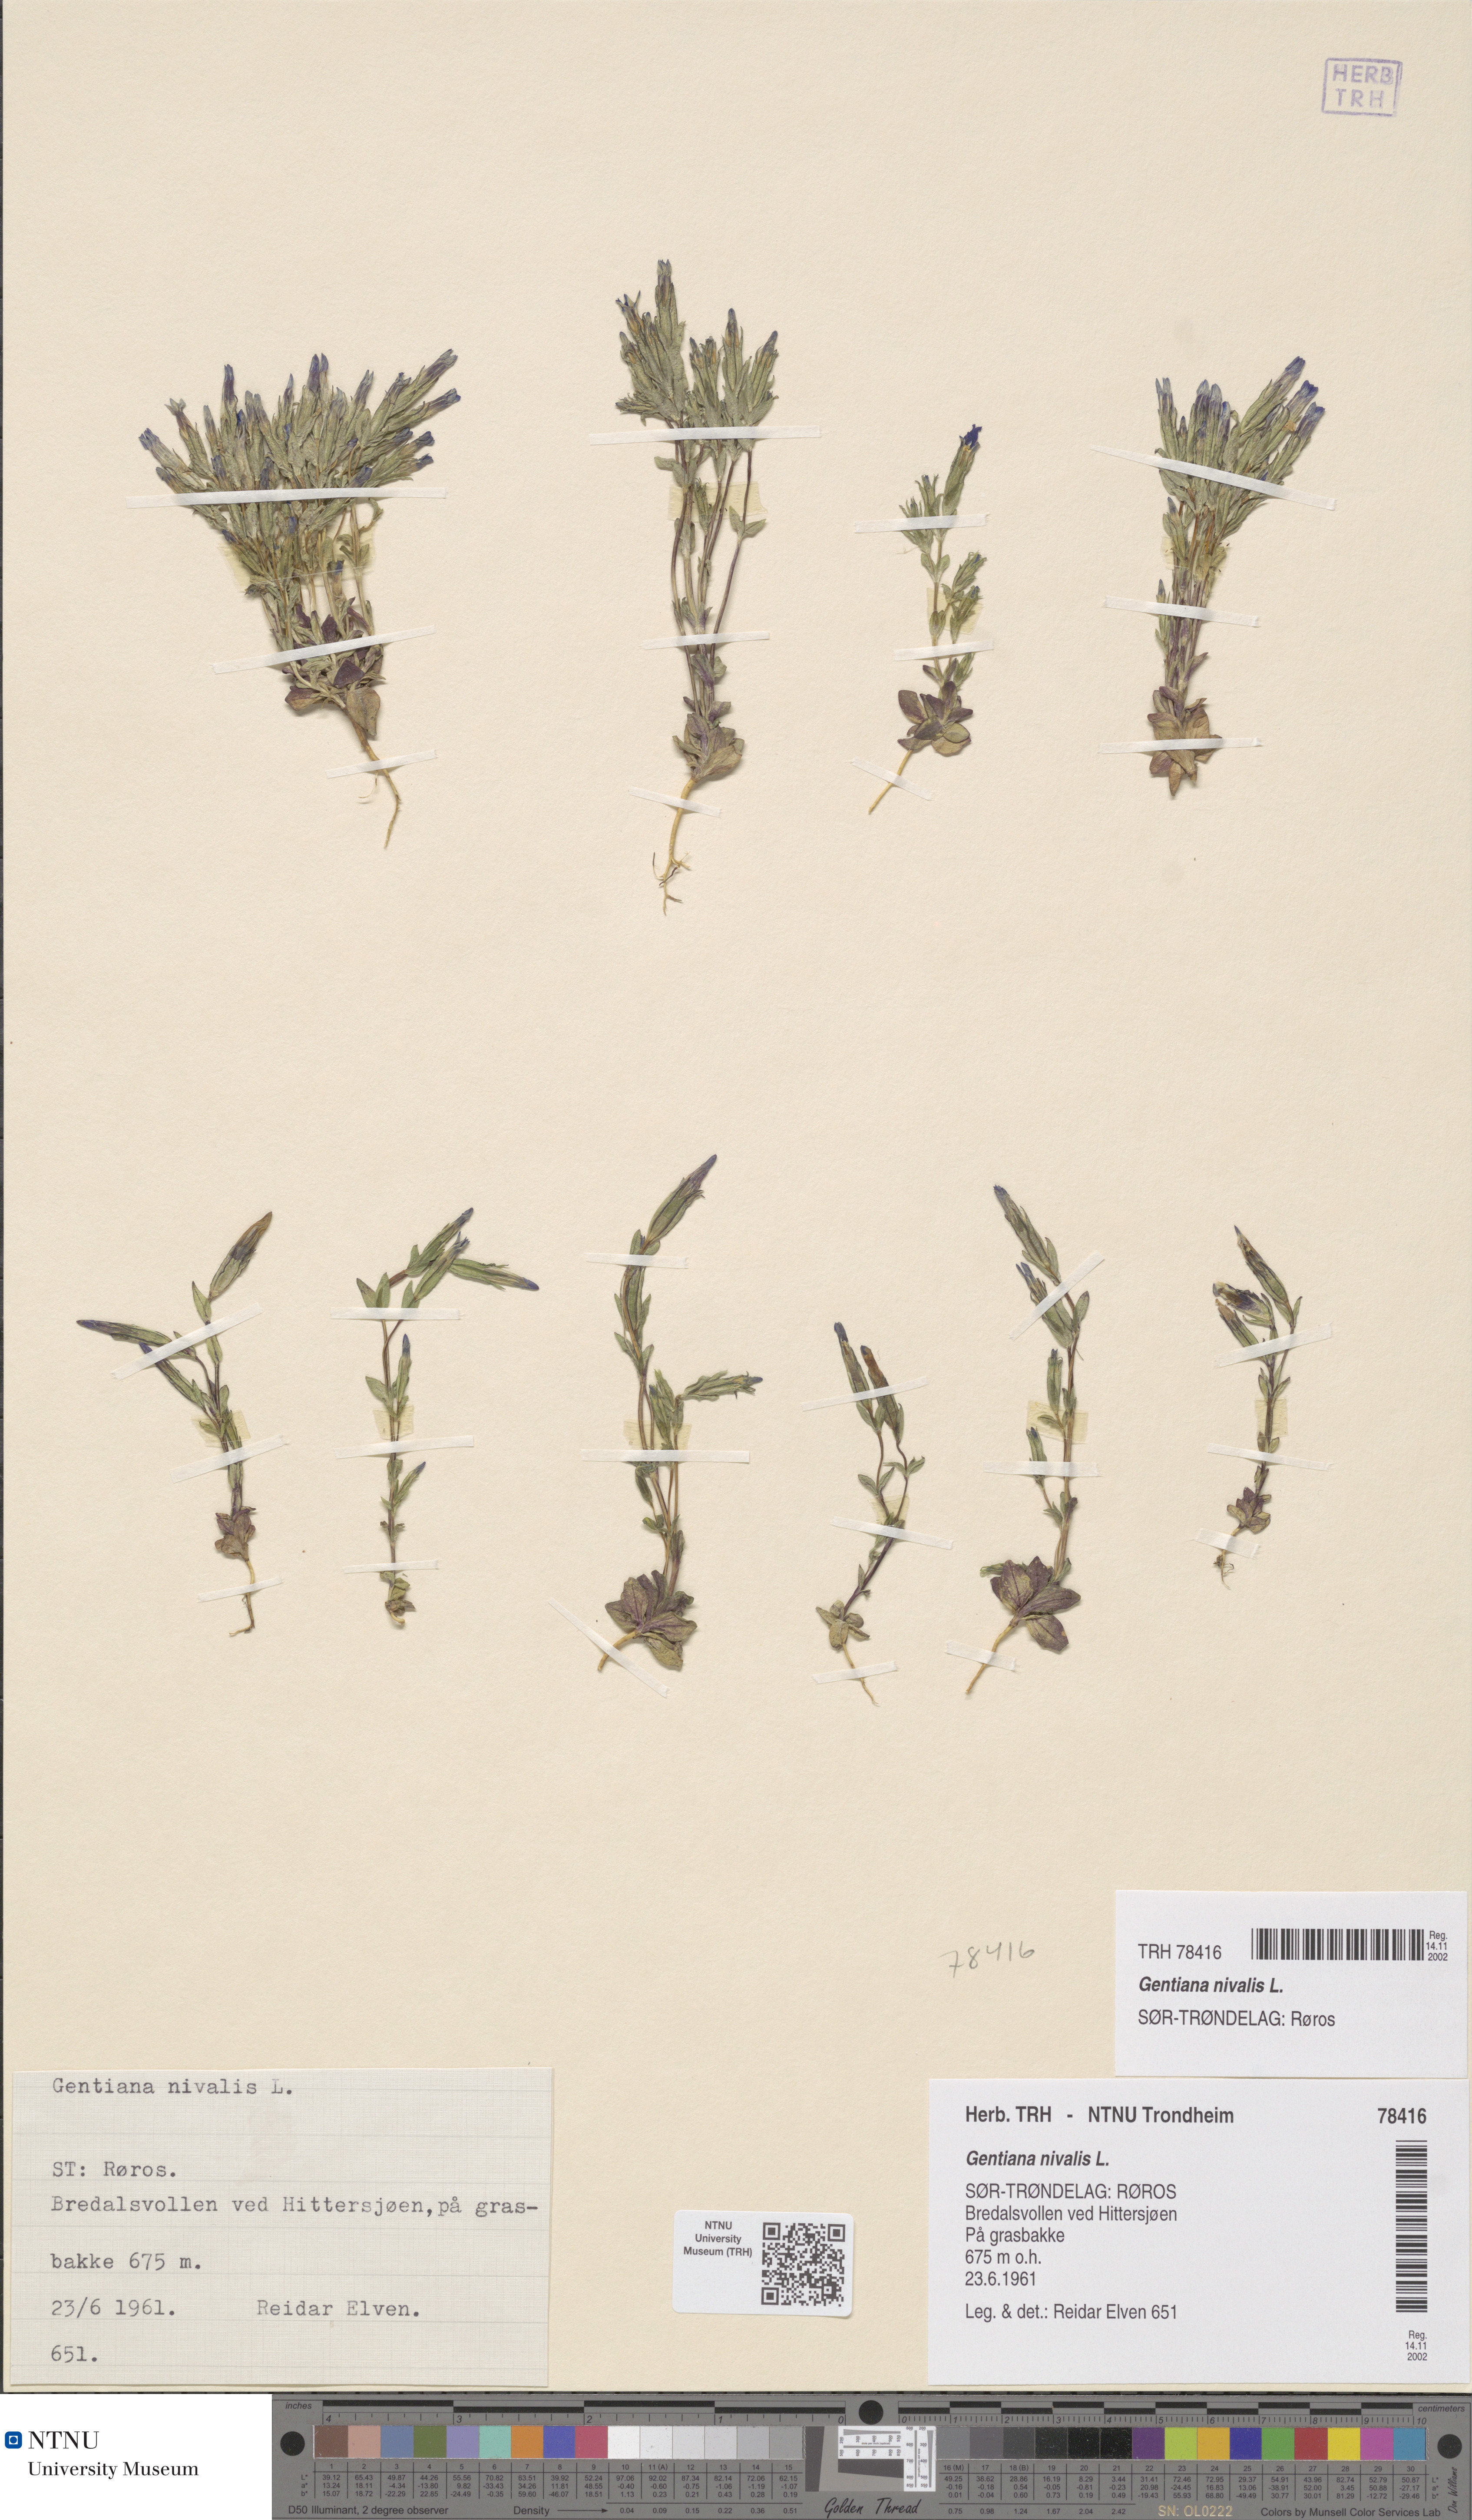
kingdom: Plantae
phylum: Tracheophyta
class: Magnoliopsida
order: Gentianales
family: Gentianaceae
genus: Gentiana
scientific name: Gentiana nivalis
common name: Alpine gentian
